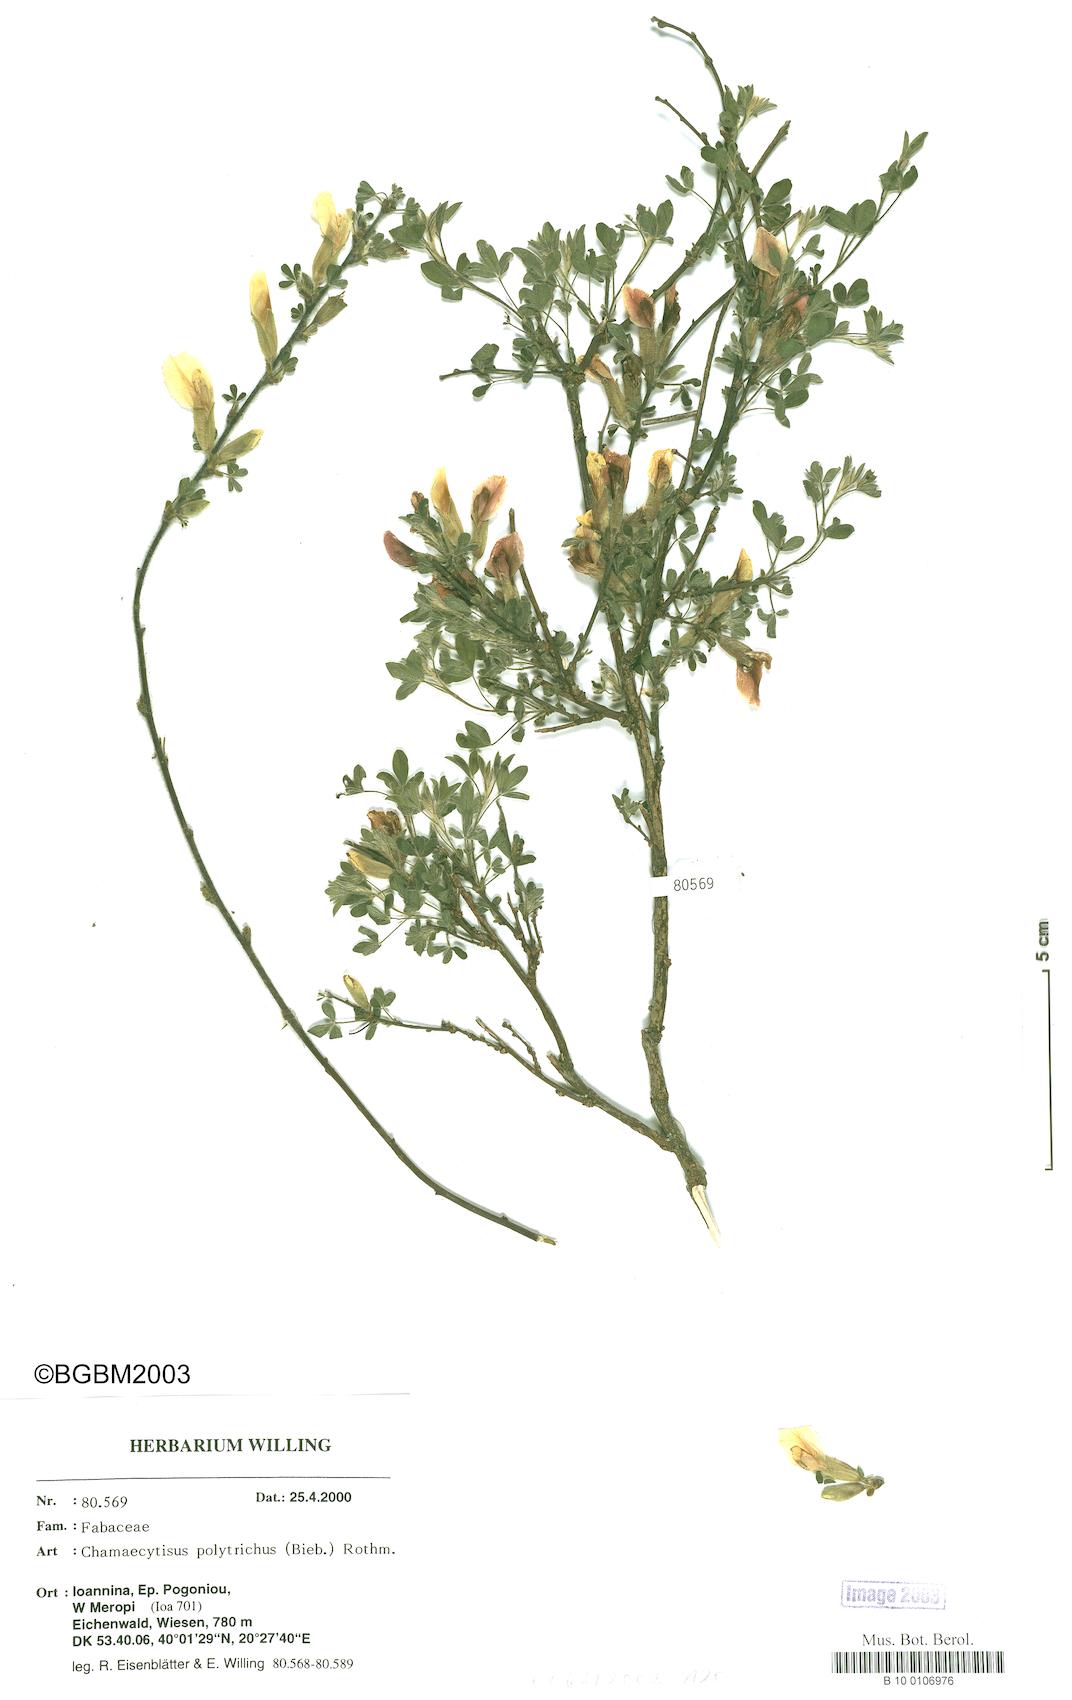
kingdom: Plantae
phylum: Tracheophyta
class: Magnoliopsida
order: Fabales
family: Fabaceae
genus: Chamaecytisus
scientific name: Chamaecytisus hirsutus
